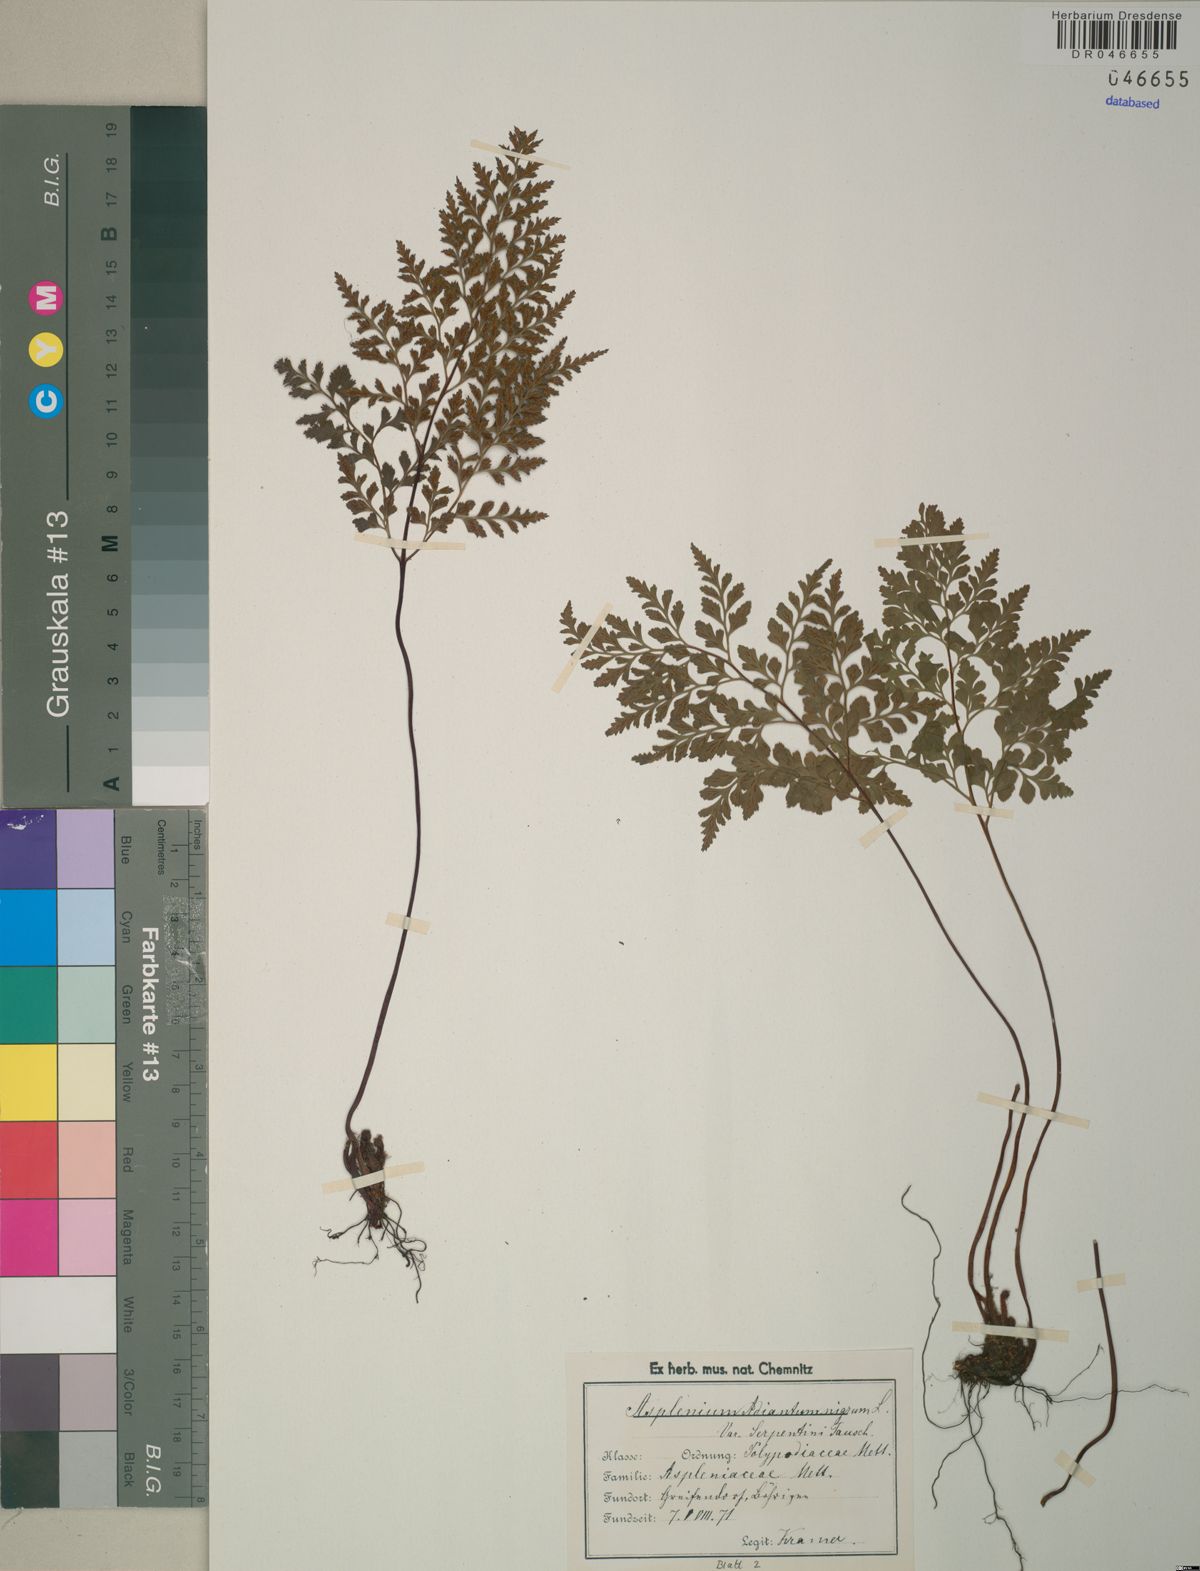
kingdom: Plantae
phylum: Tracheophyta
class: Polypodiopsida
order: Polypodiales
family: Aspleniaceae
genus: Asplenium
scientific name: Asplenium cuneifolium
